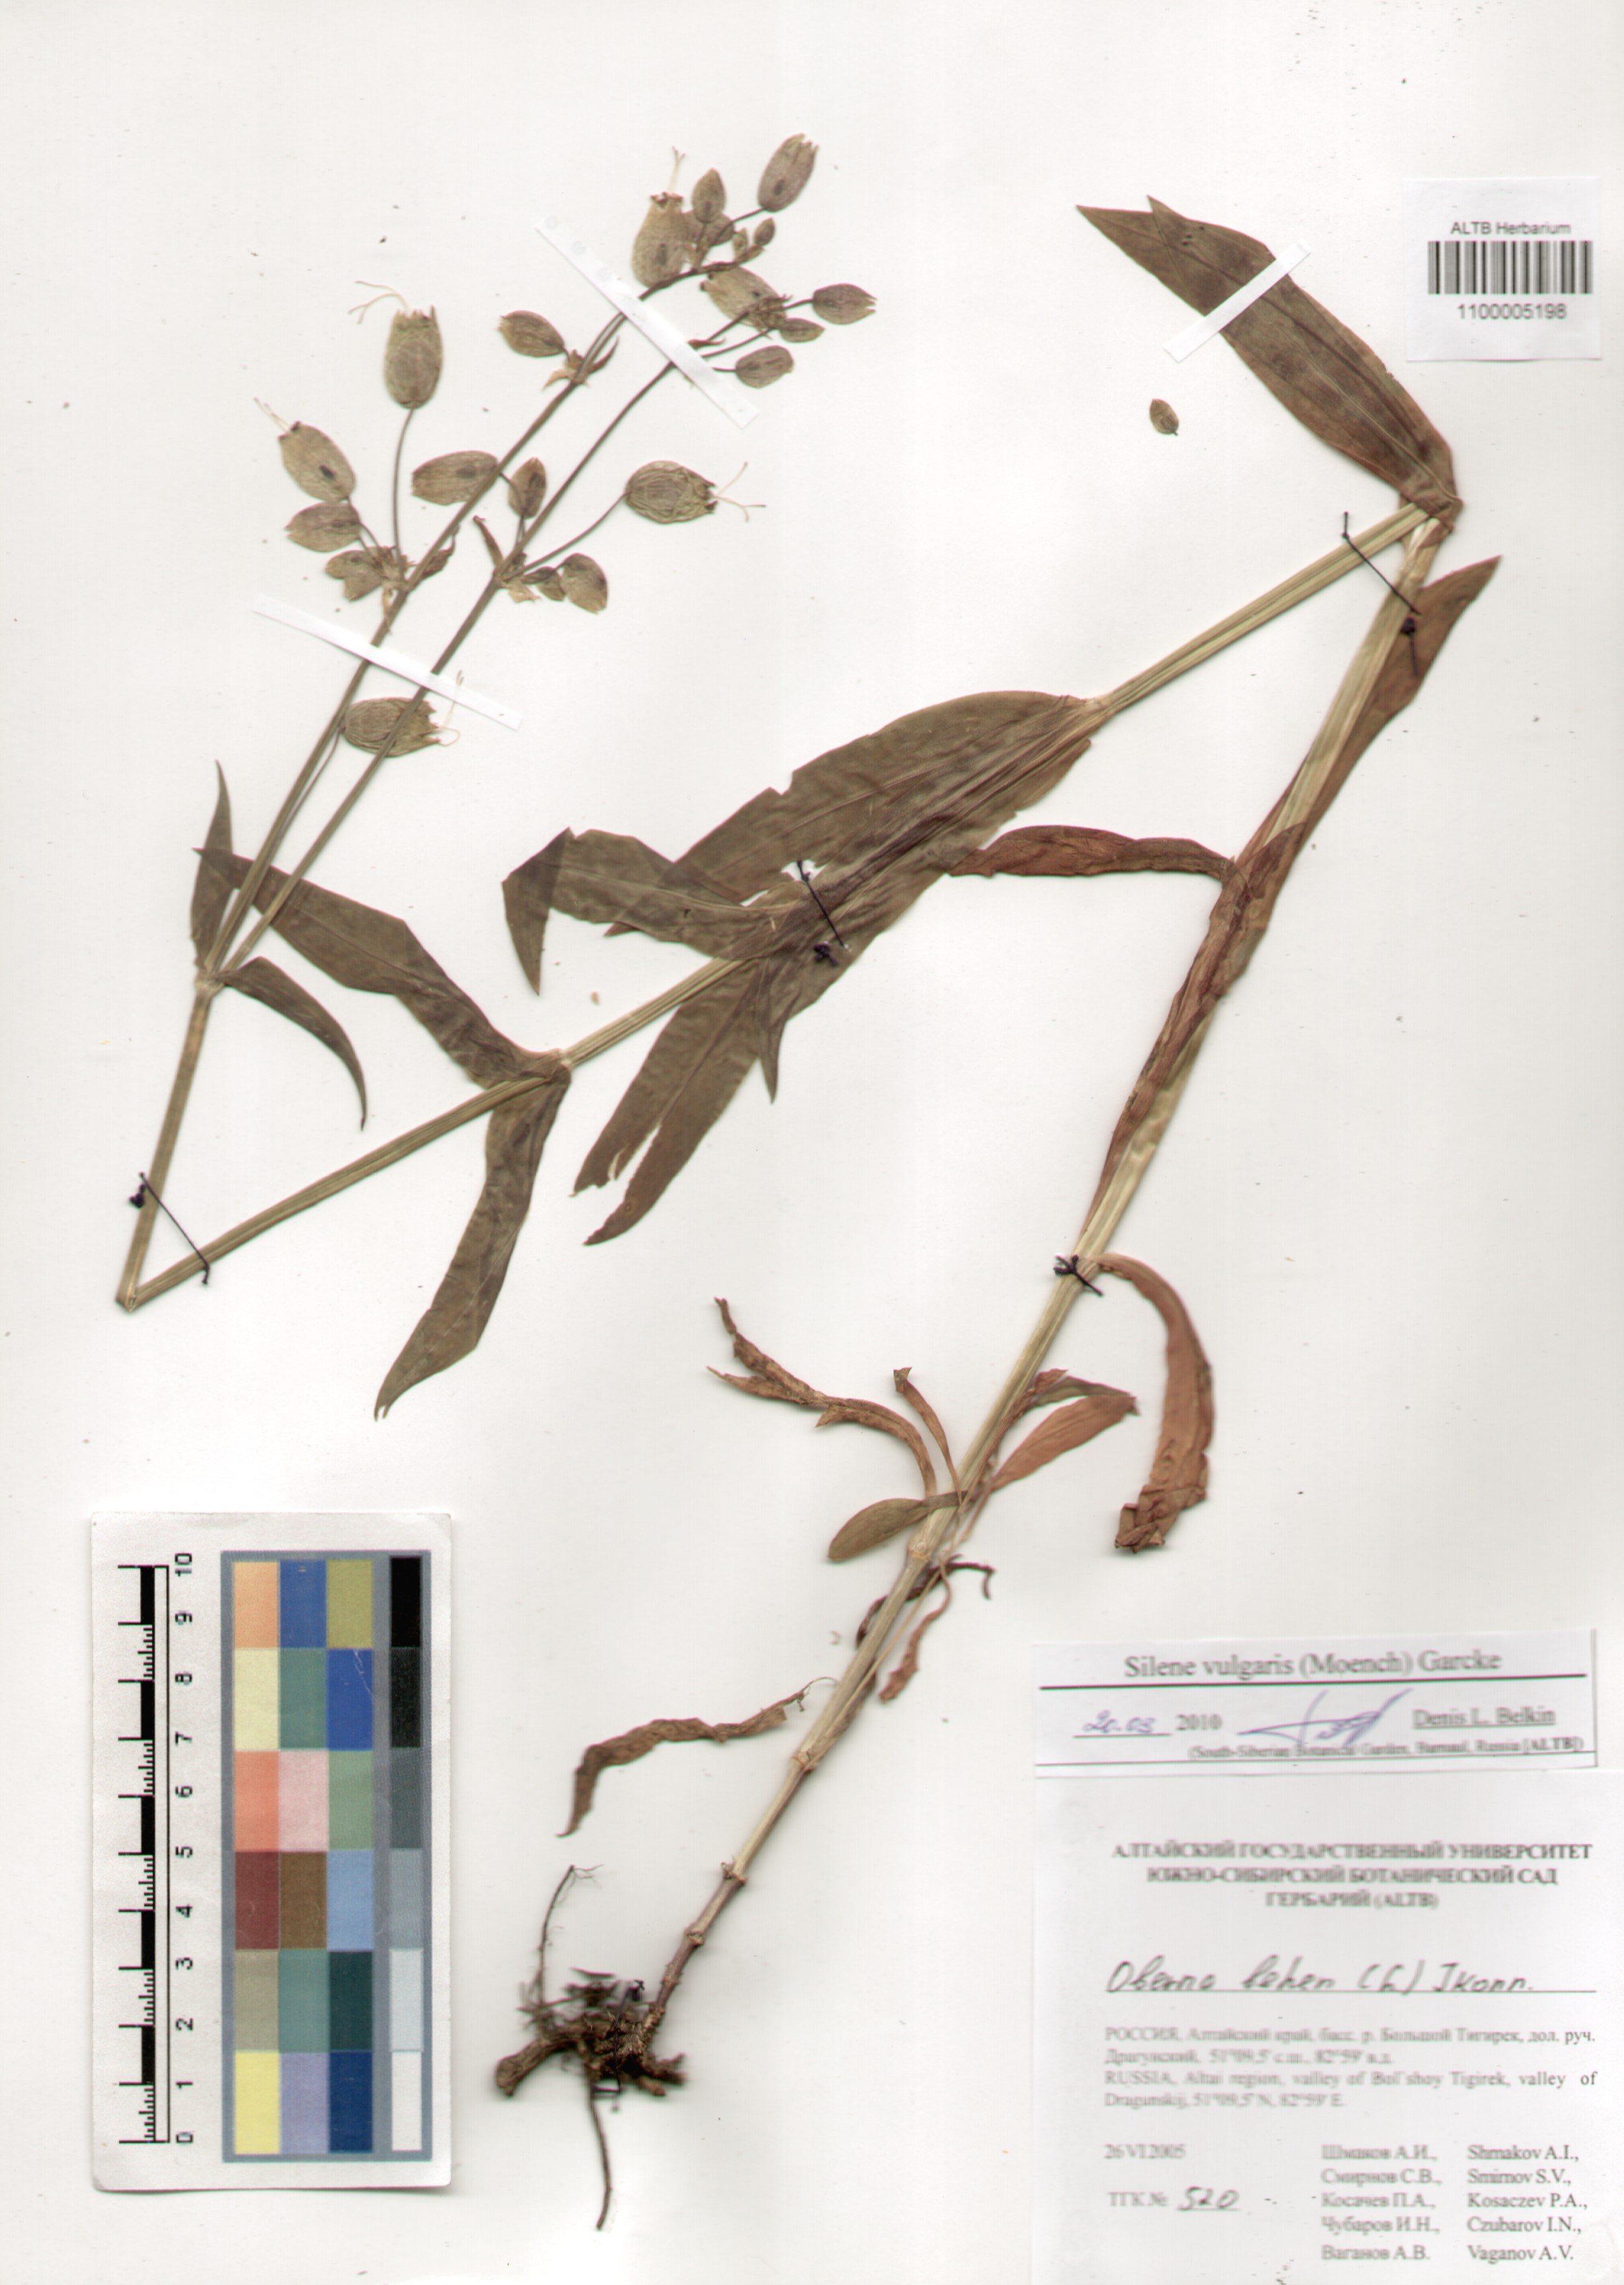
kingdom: Plantae
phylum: Tracheophyta
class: Magnoliopsida
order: Caryophyllales
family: Caryophyllaceae
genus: Silene
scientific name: Silene vulgaris
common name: Bladder campion
